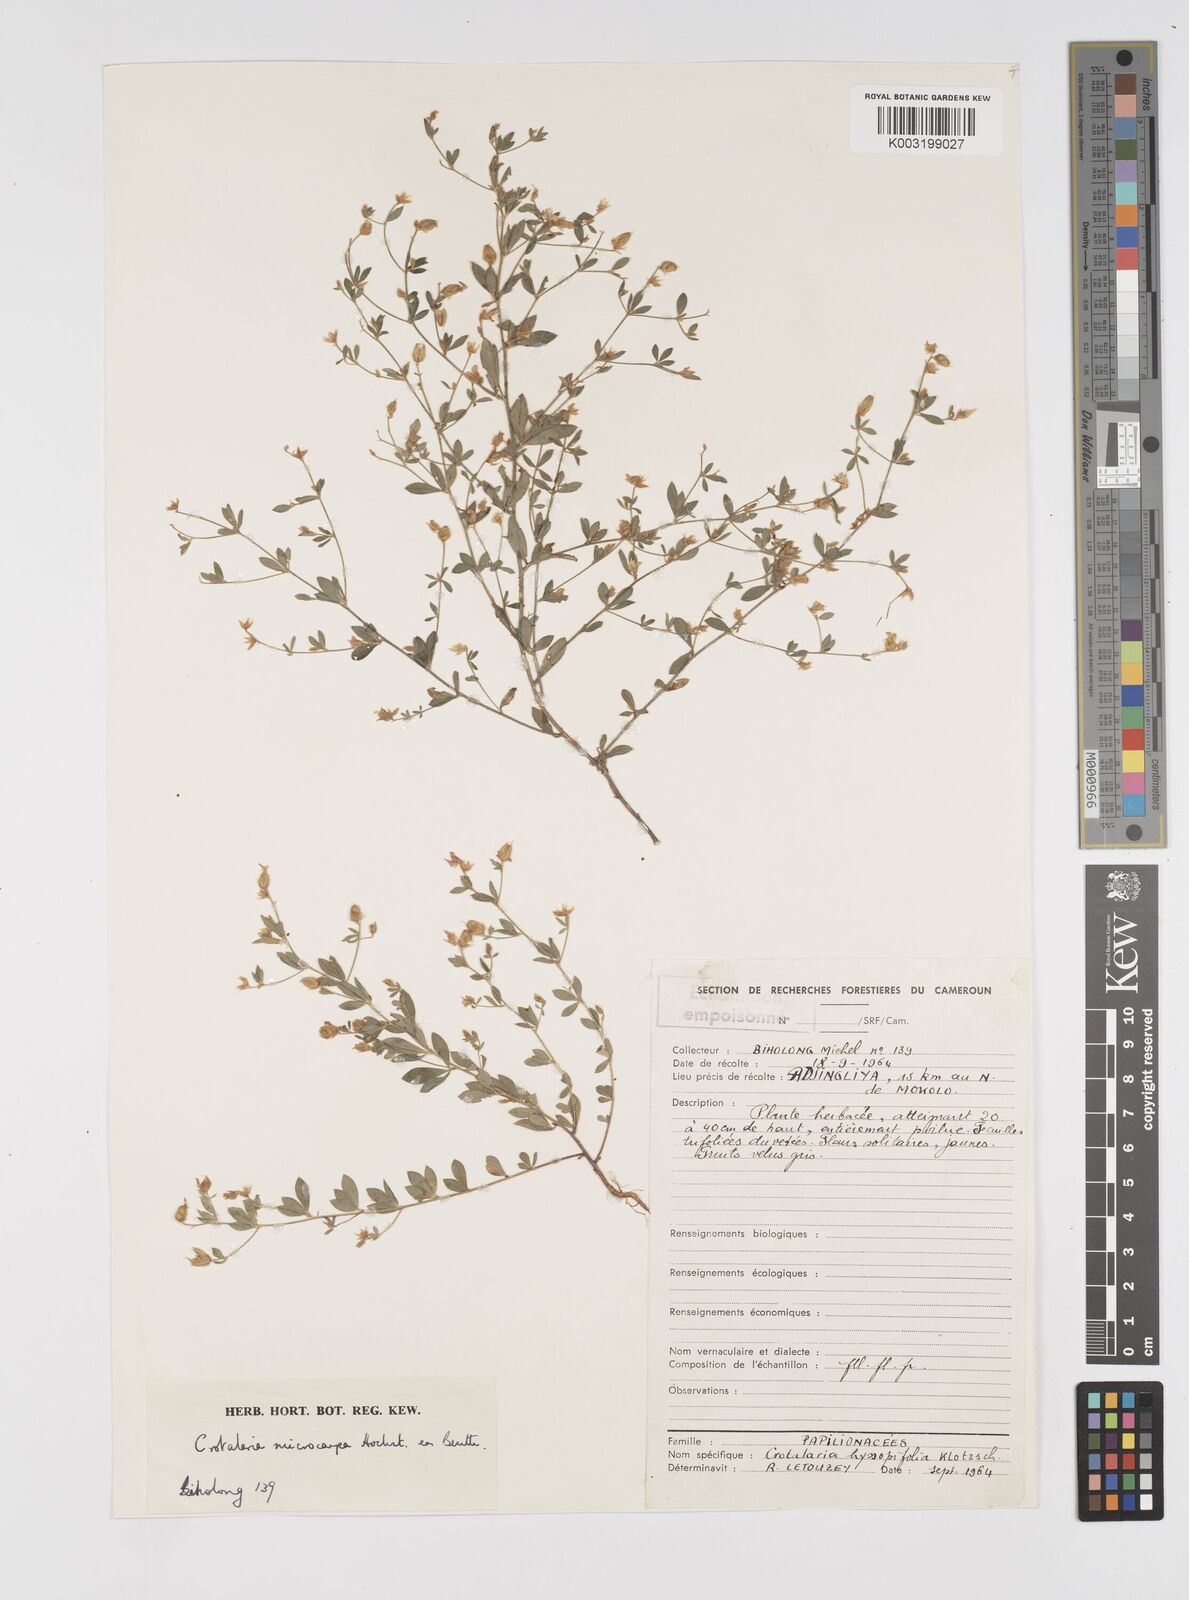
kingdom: Plantae
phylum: Tracheophyta
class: Magnoliopsida
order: Fabales
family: Fabaceae
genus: Crotalaria
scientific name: Crotalaria microcarpa
